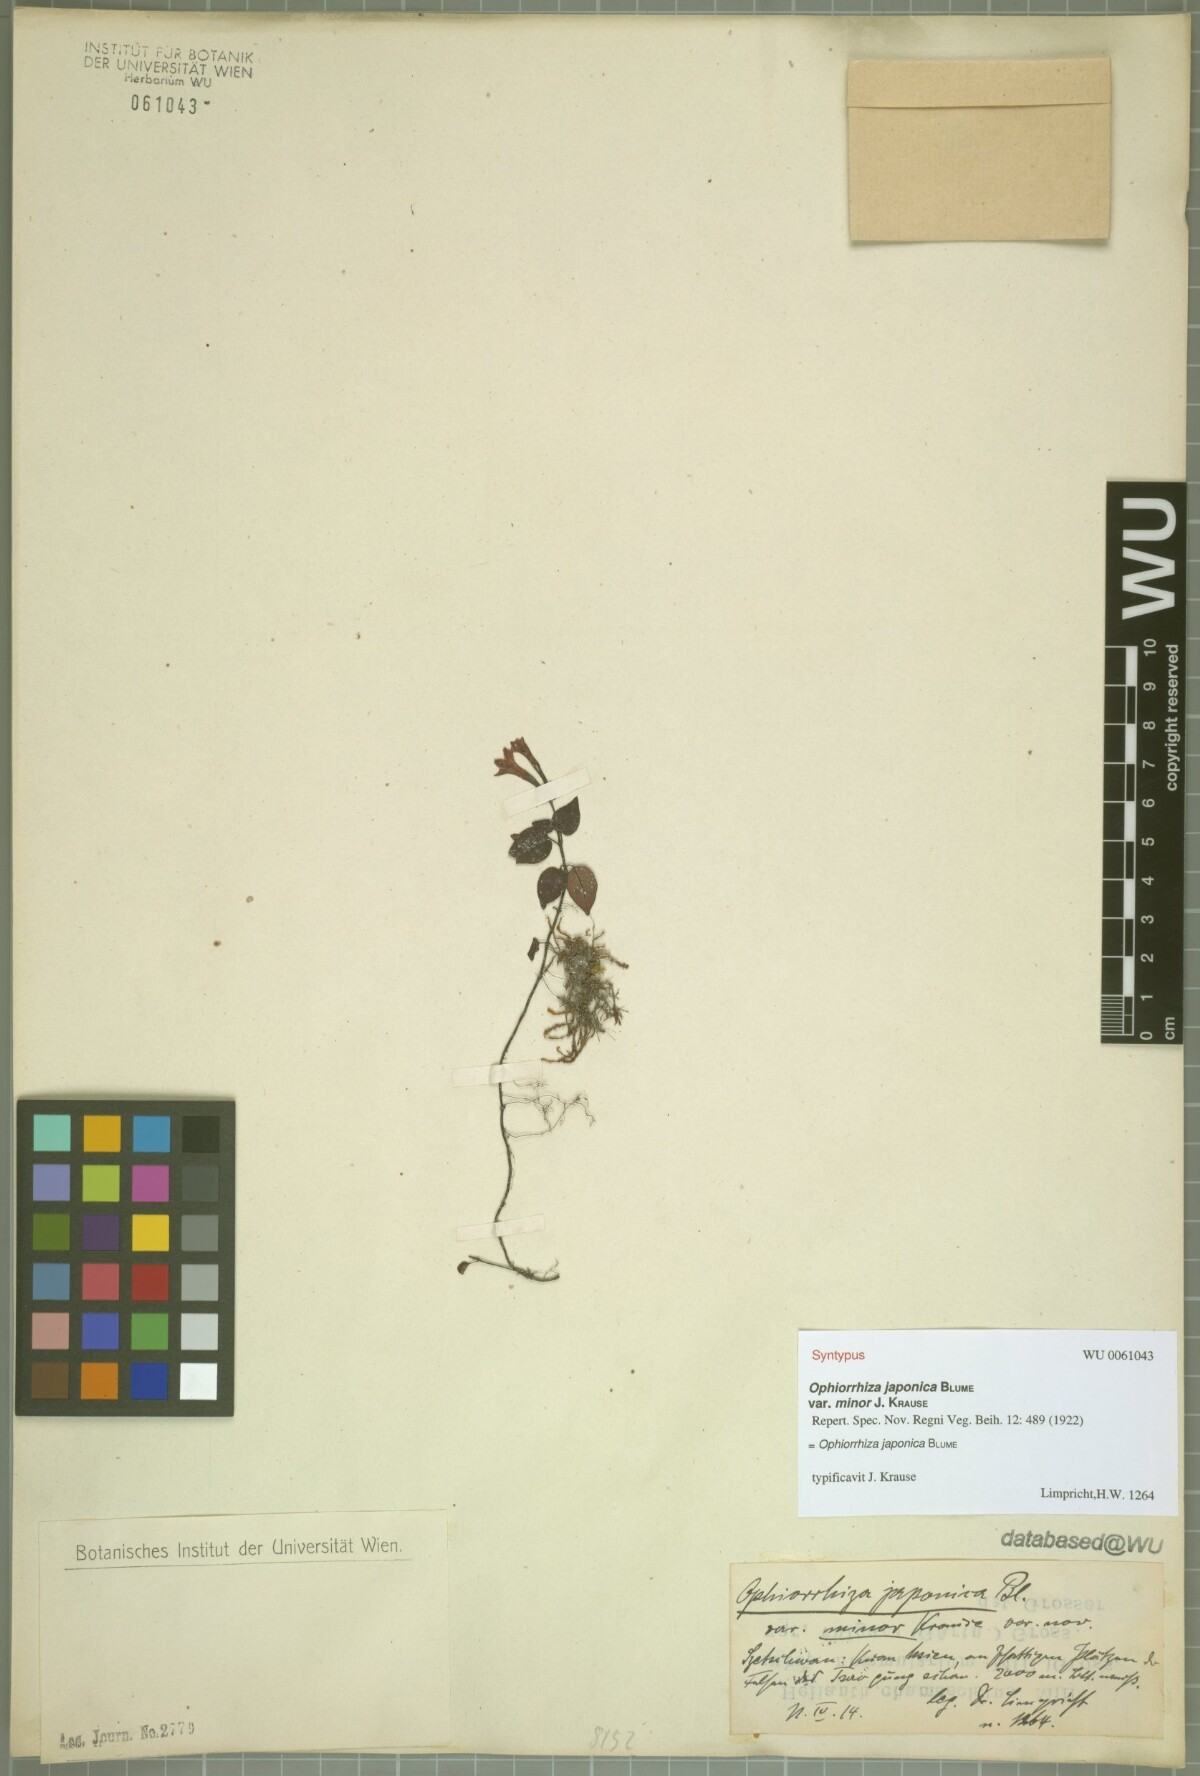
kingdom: Plantae
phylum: Tracheophyta
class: Magnoliopsida
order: Gentianales
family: Rubiaceae
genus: Ophiorrhiza
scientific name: Ophiorrhiza japonica
